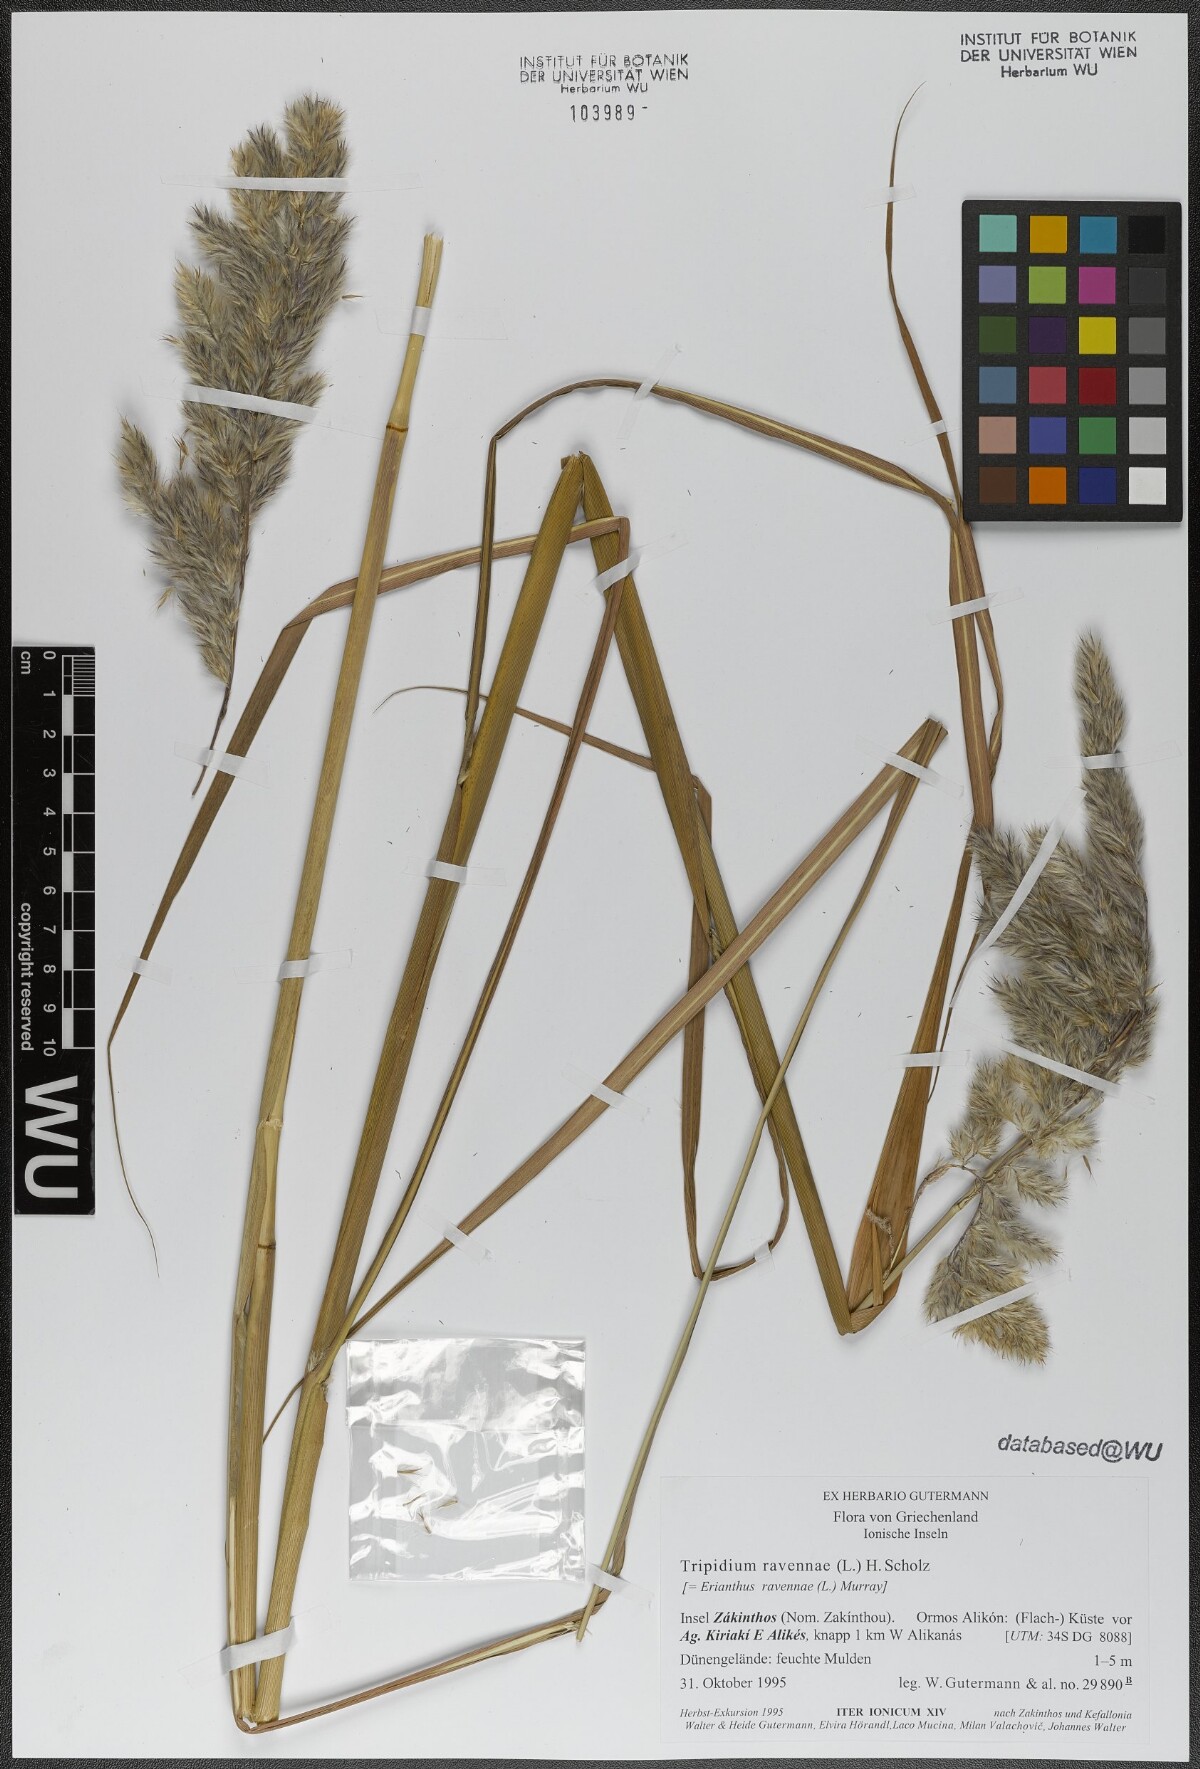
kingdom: Plantae
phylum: Tracheophyta
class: Liliopsida
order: Poales
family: Poaceae
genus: Tripidium
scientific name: Tripidium ravennae
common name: Ravenna grass
